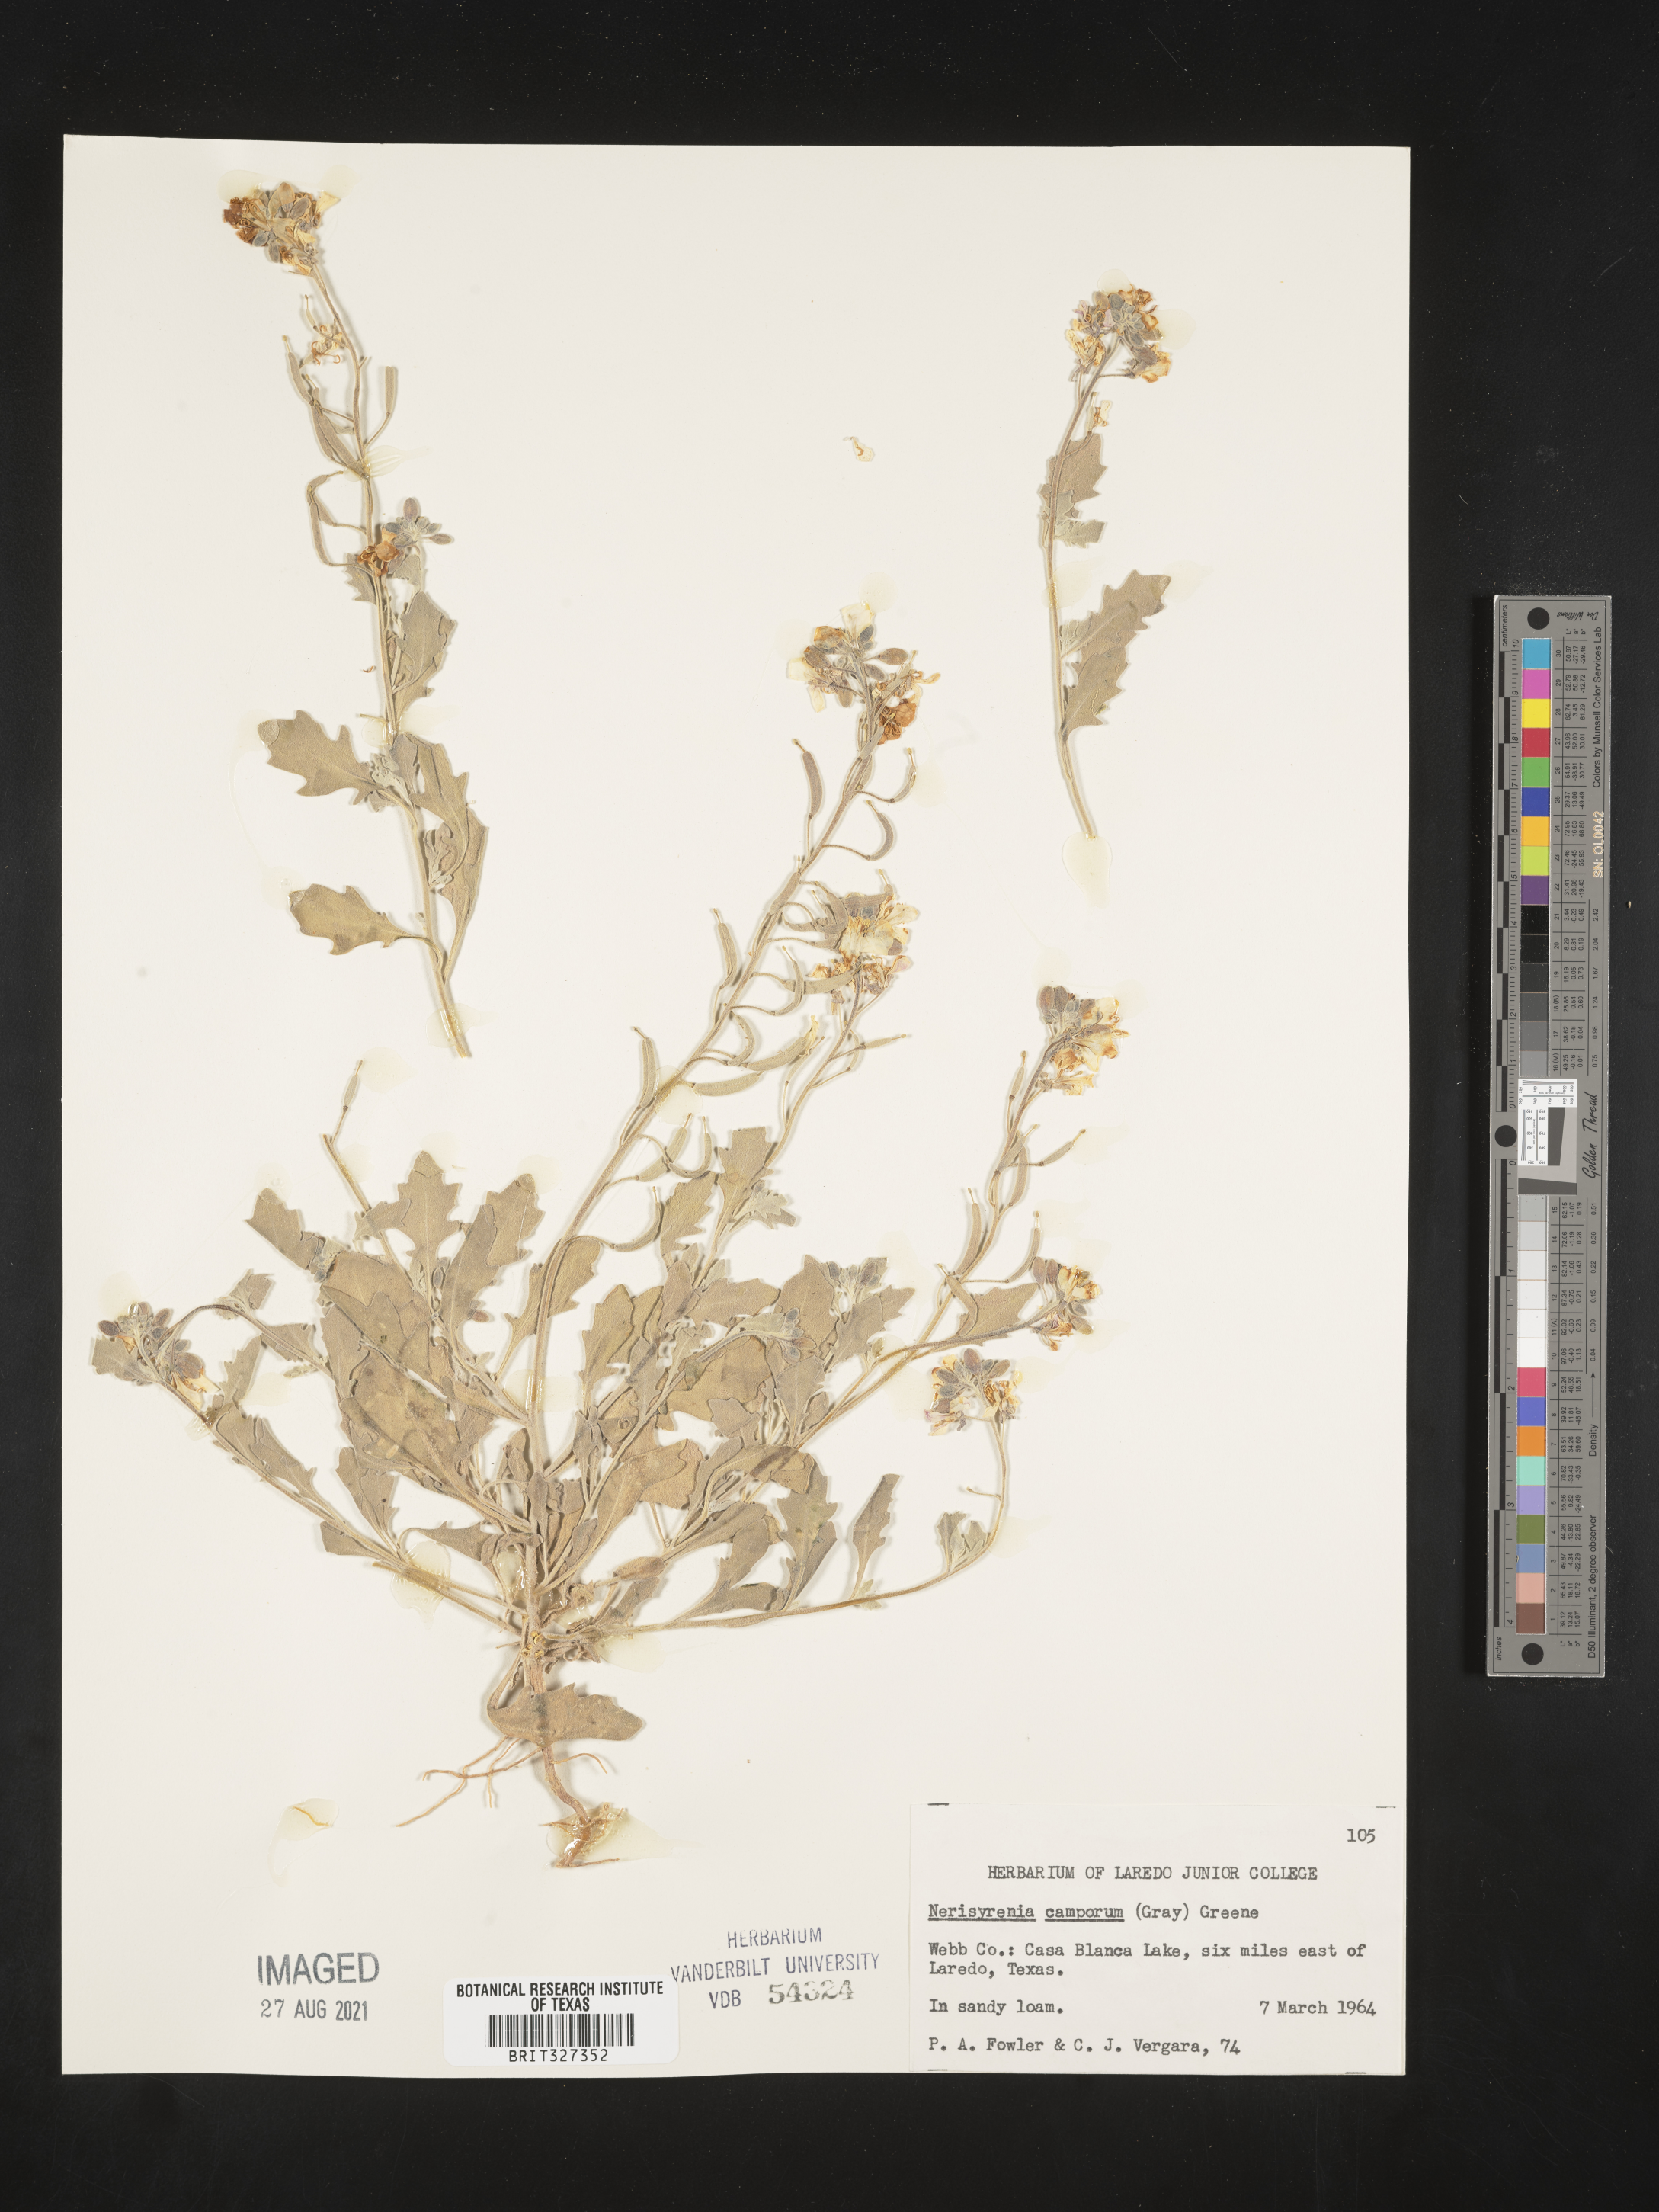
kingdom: Plantae
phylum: Tracheophyta
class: Magnoliopsida
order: Brassicales
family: Brassicaceae
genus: Nerisyrenia
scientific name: Nerisyrenia camporum
